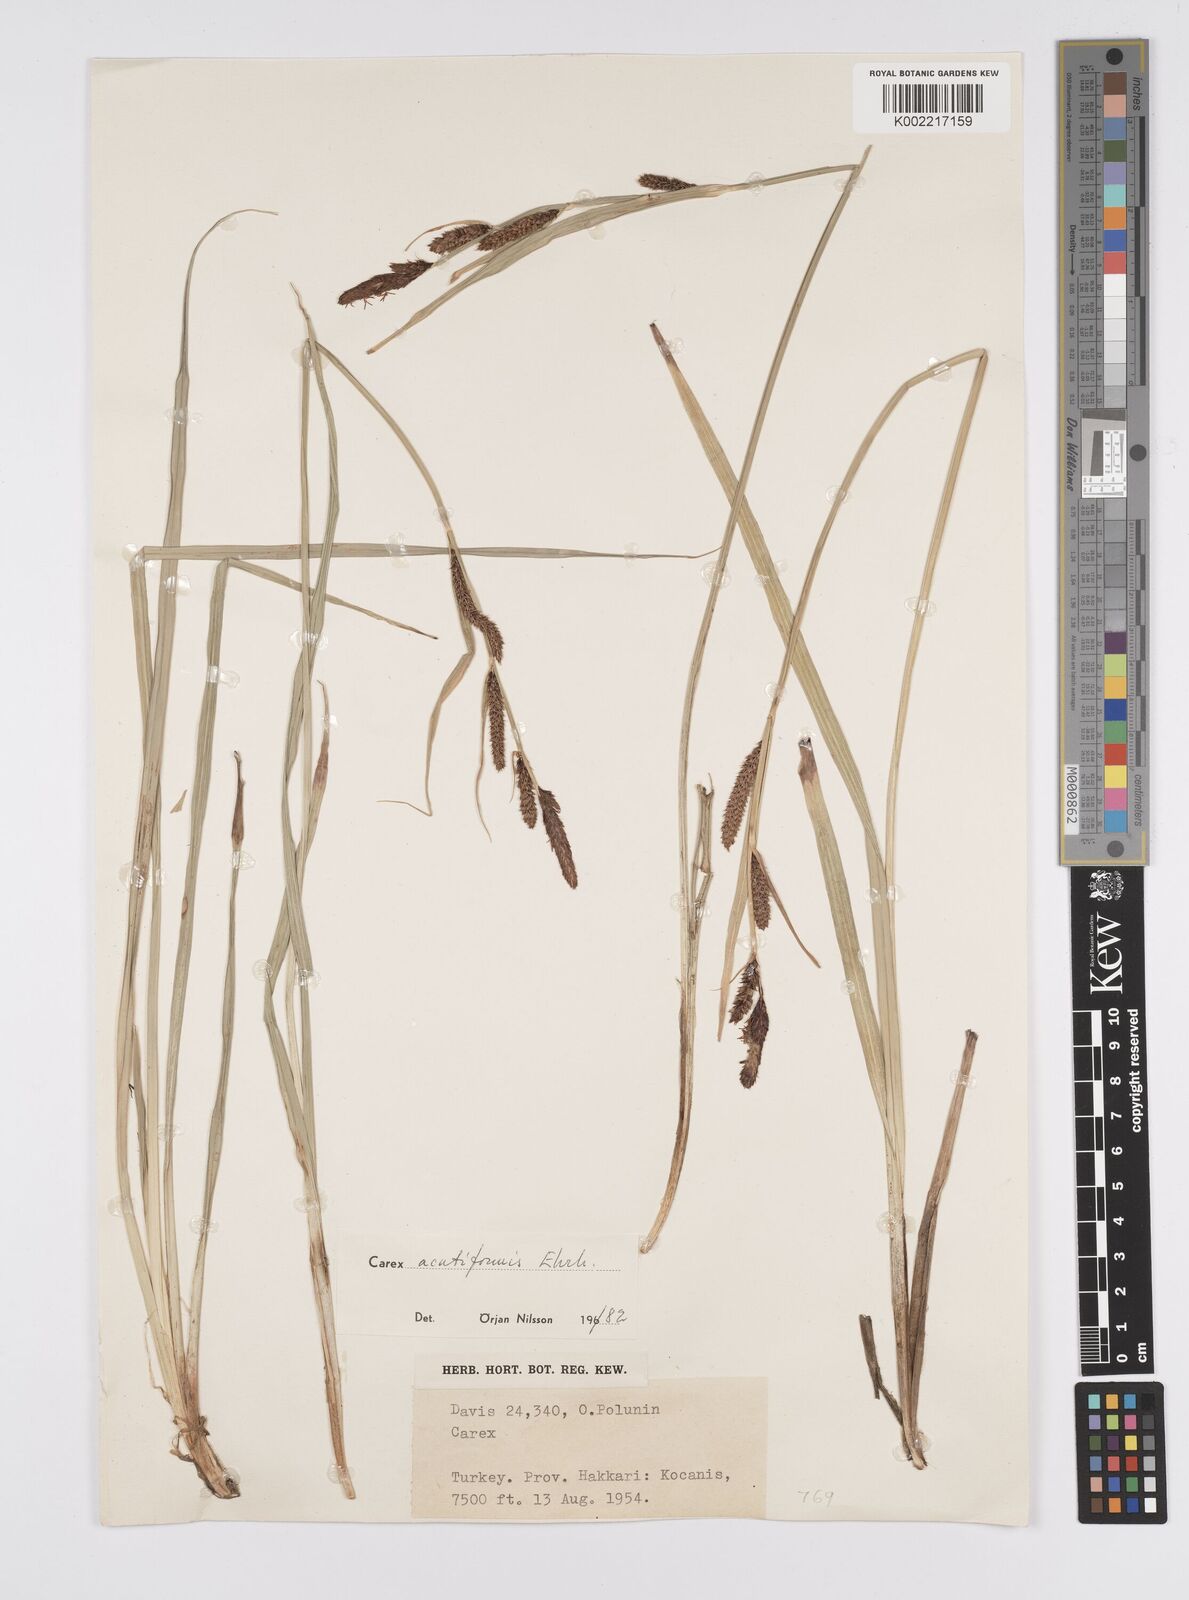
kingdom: Plantae
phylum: Tracheophyta
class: Liliopsida
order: Poales
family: Cyperaceae
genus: Carex
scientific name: Carex acutiformis
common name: Lesser pond-sedge
